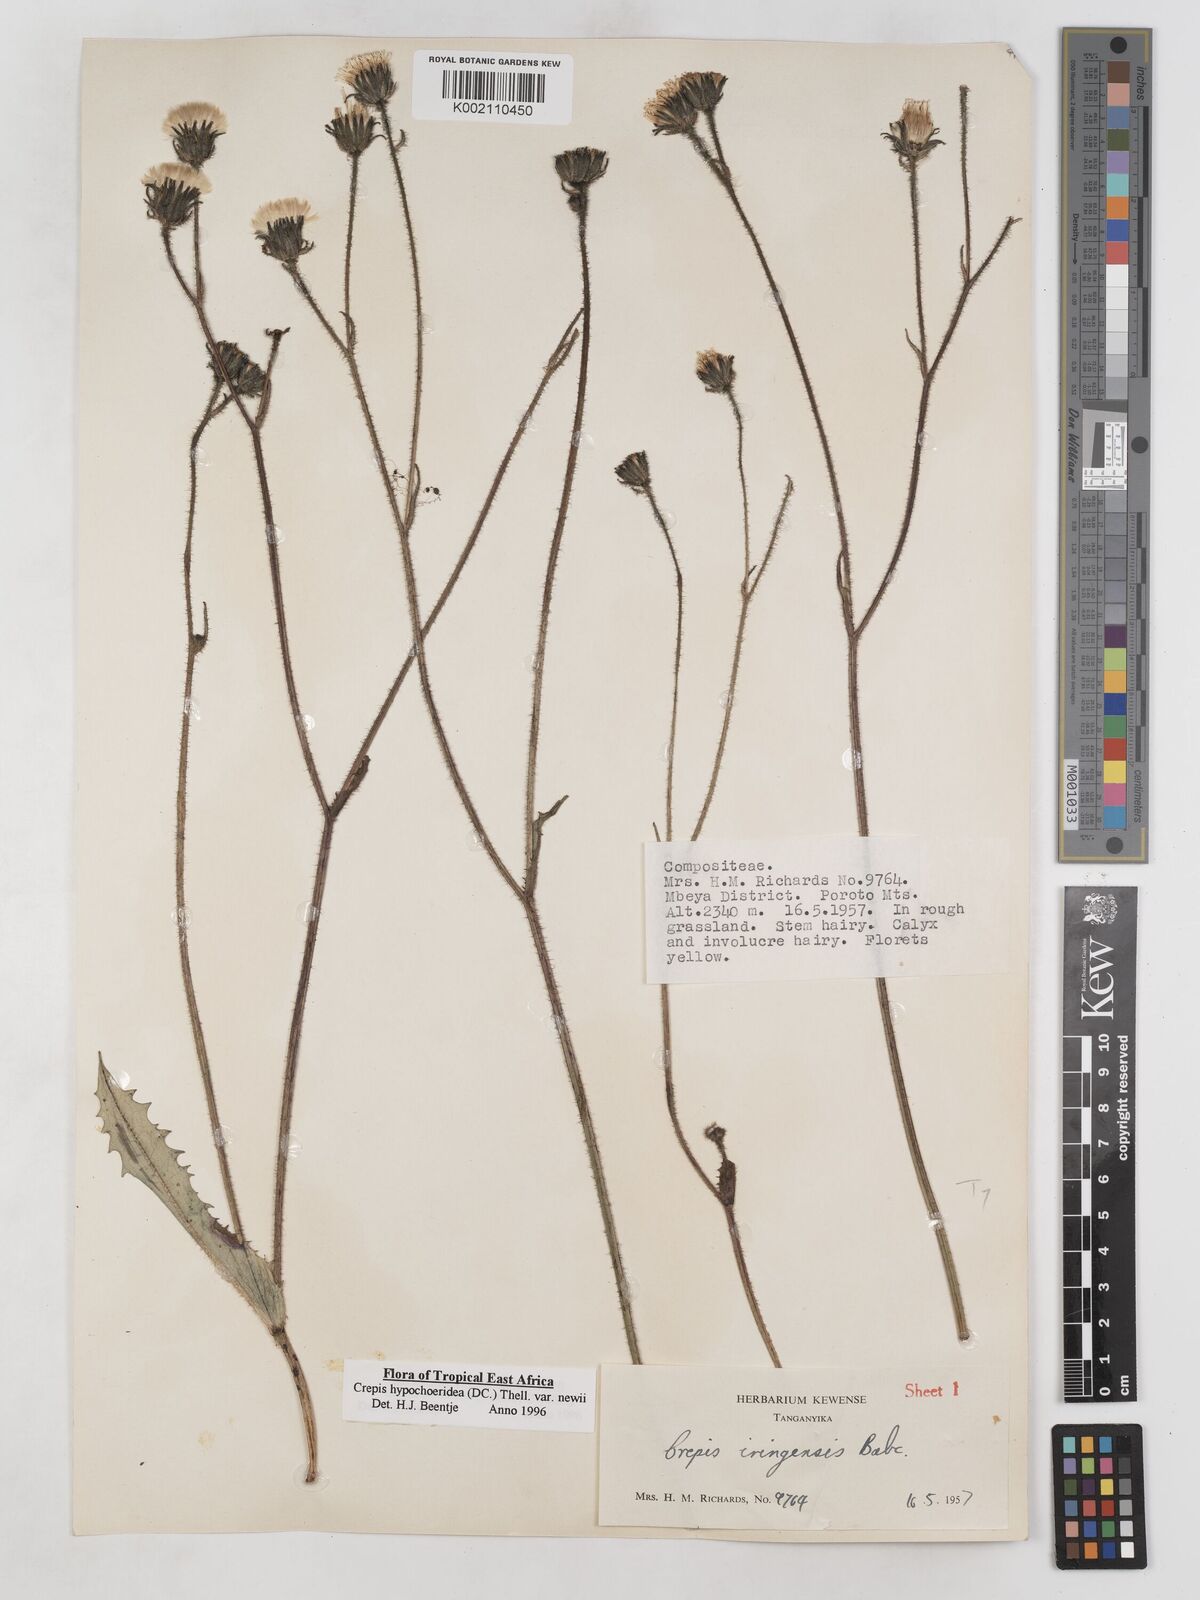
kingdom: Plantae
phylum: Tracheophyta
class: Magnoliopsida
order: Asterales
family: Asteraceae
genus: Crepis
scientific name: Crepis hypochoeridea
